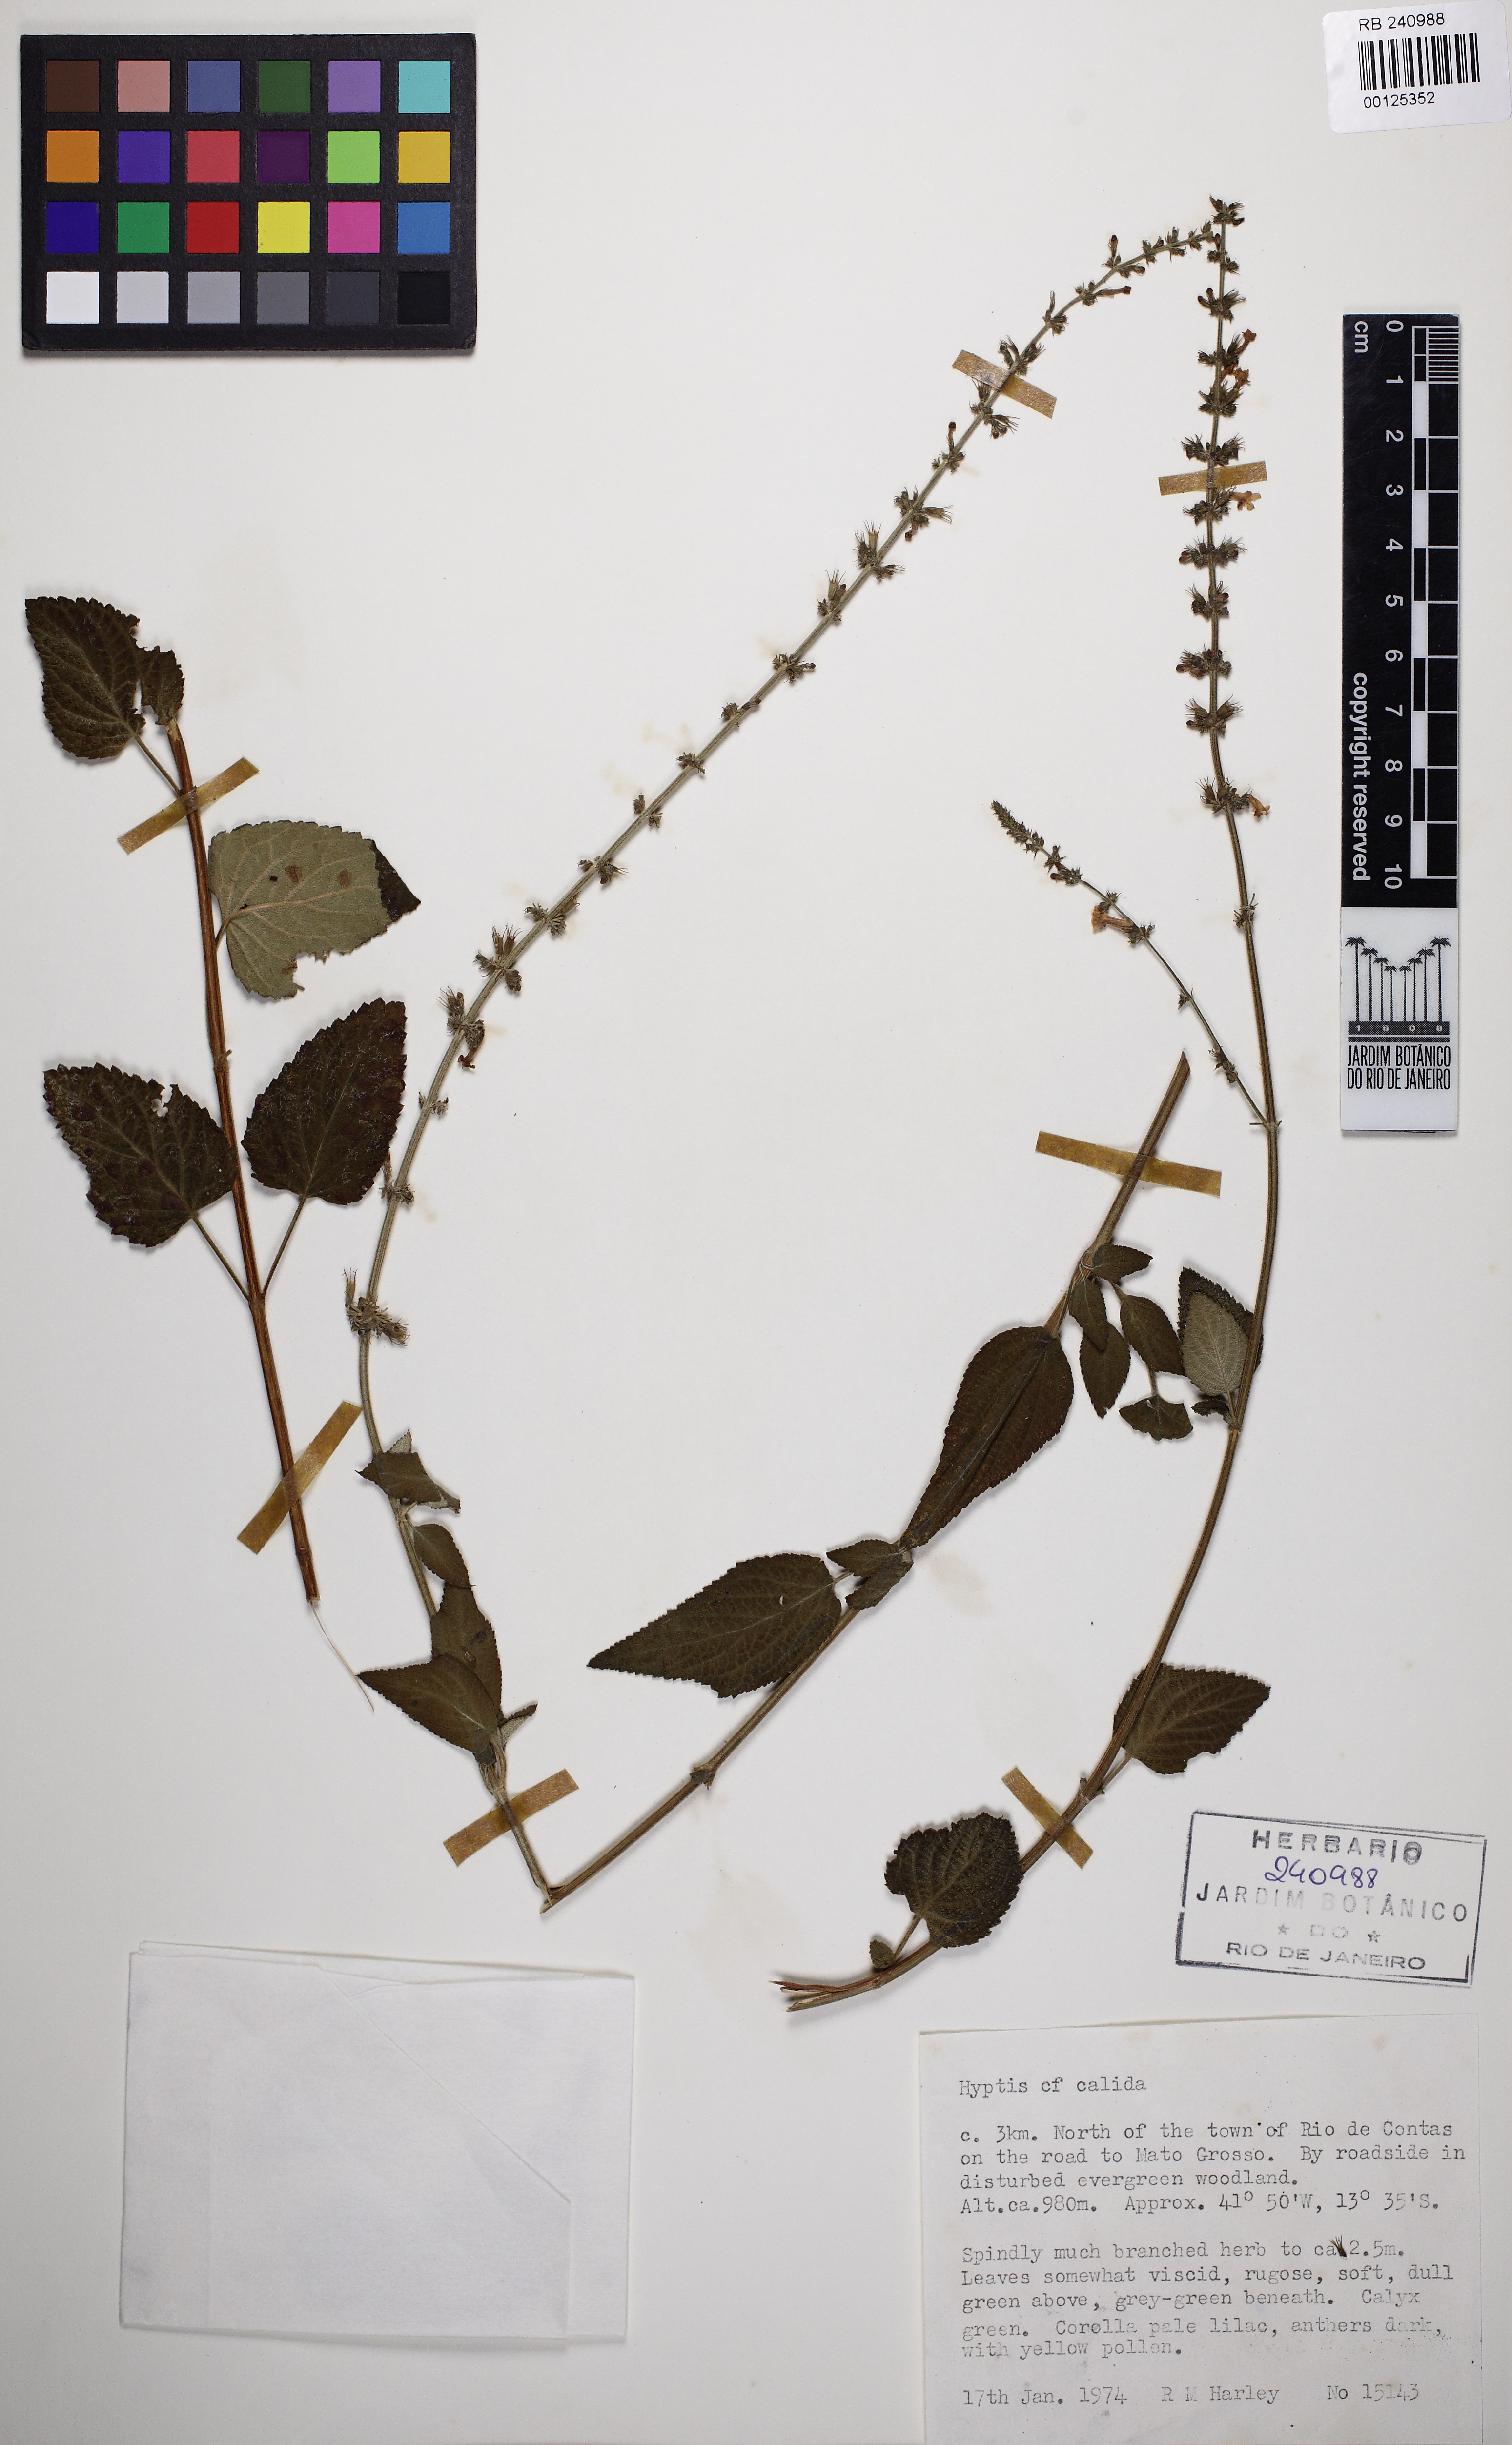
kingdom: Plantae
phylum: Tracheophyta
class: Magnoliopsida
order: Lamiales
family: Lamiaceae
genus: Leptohyptis
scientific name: Leptohyptis calida
